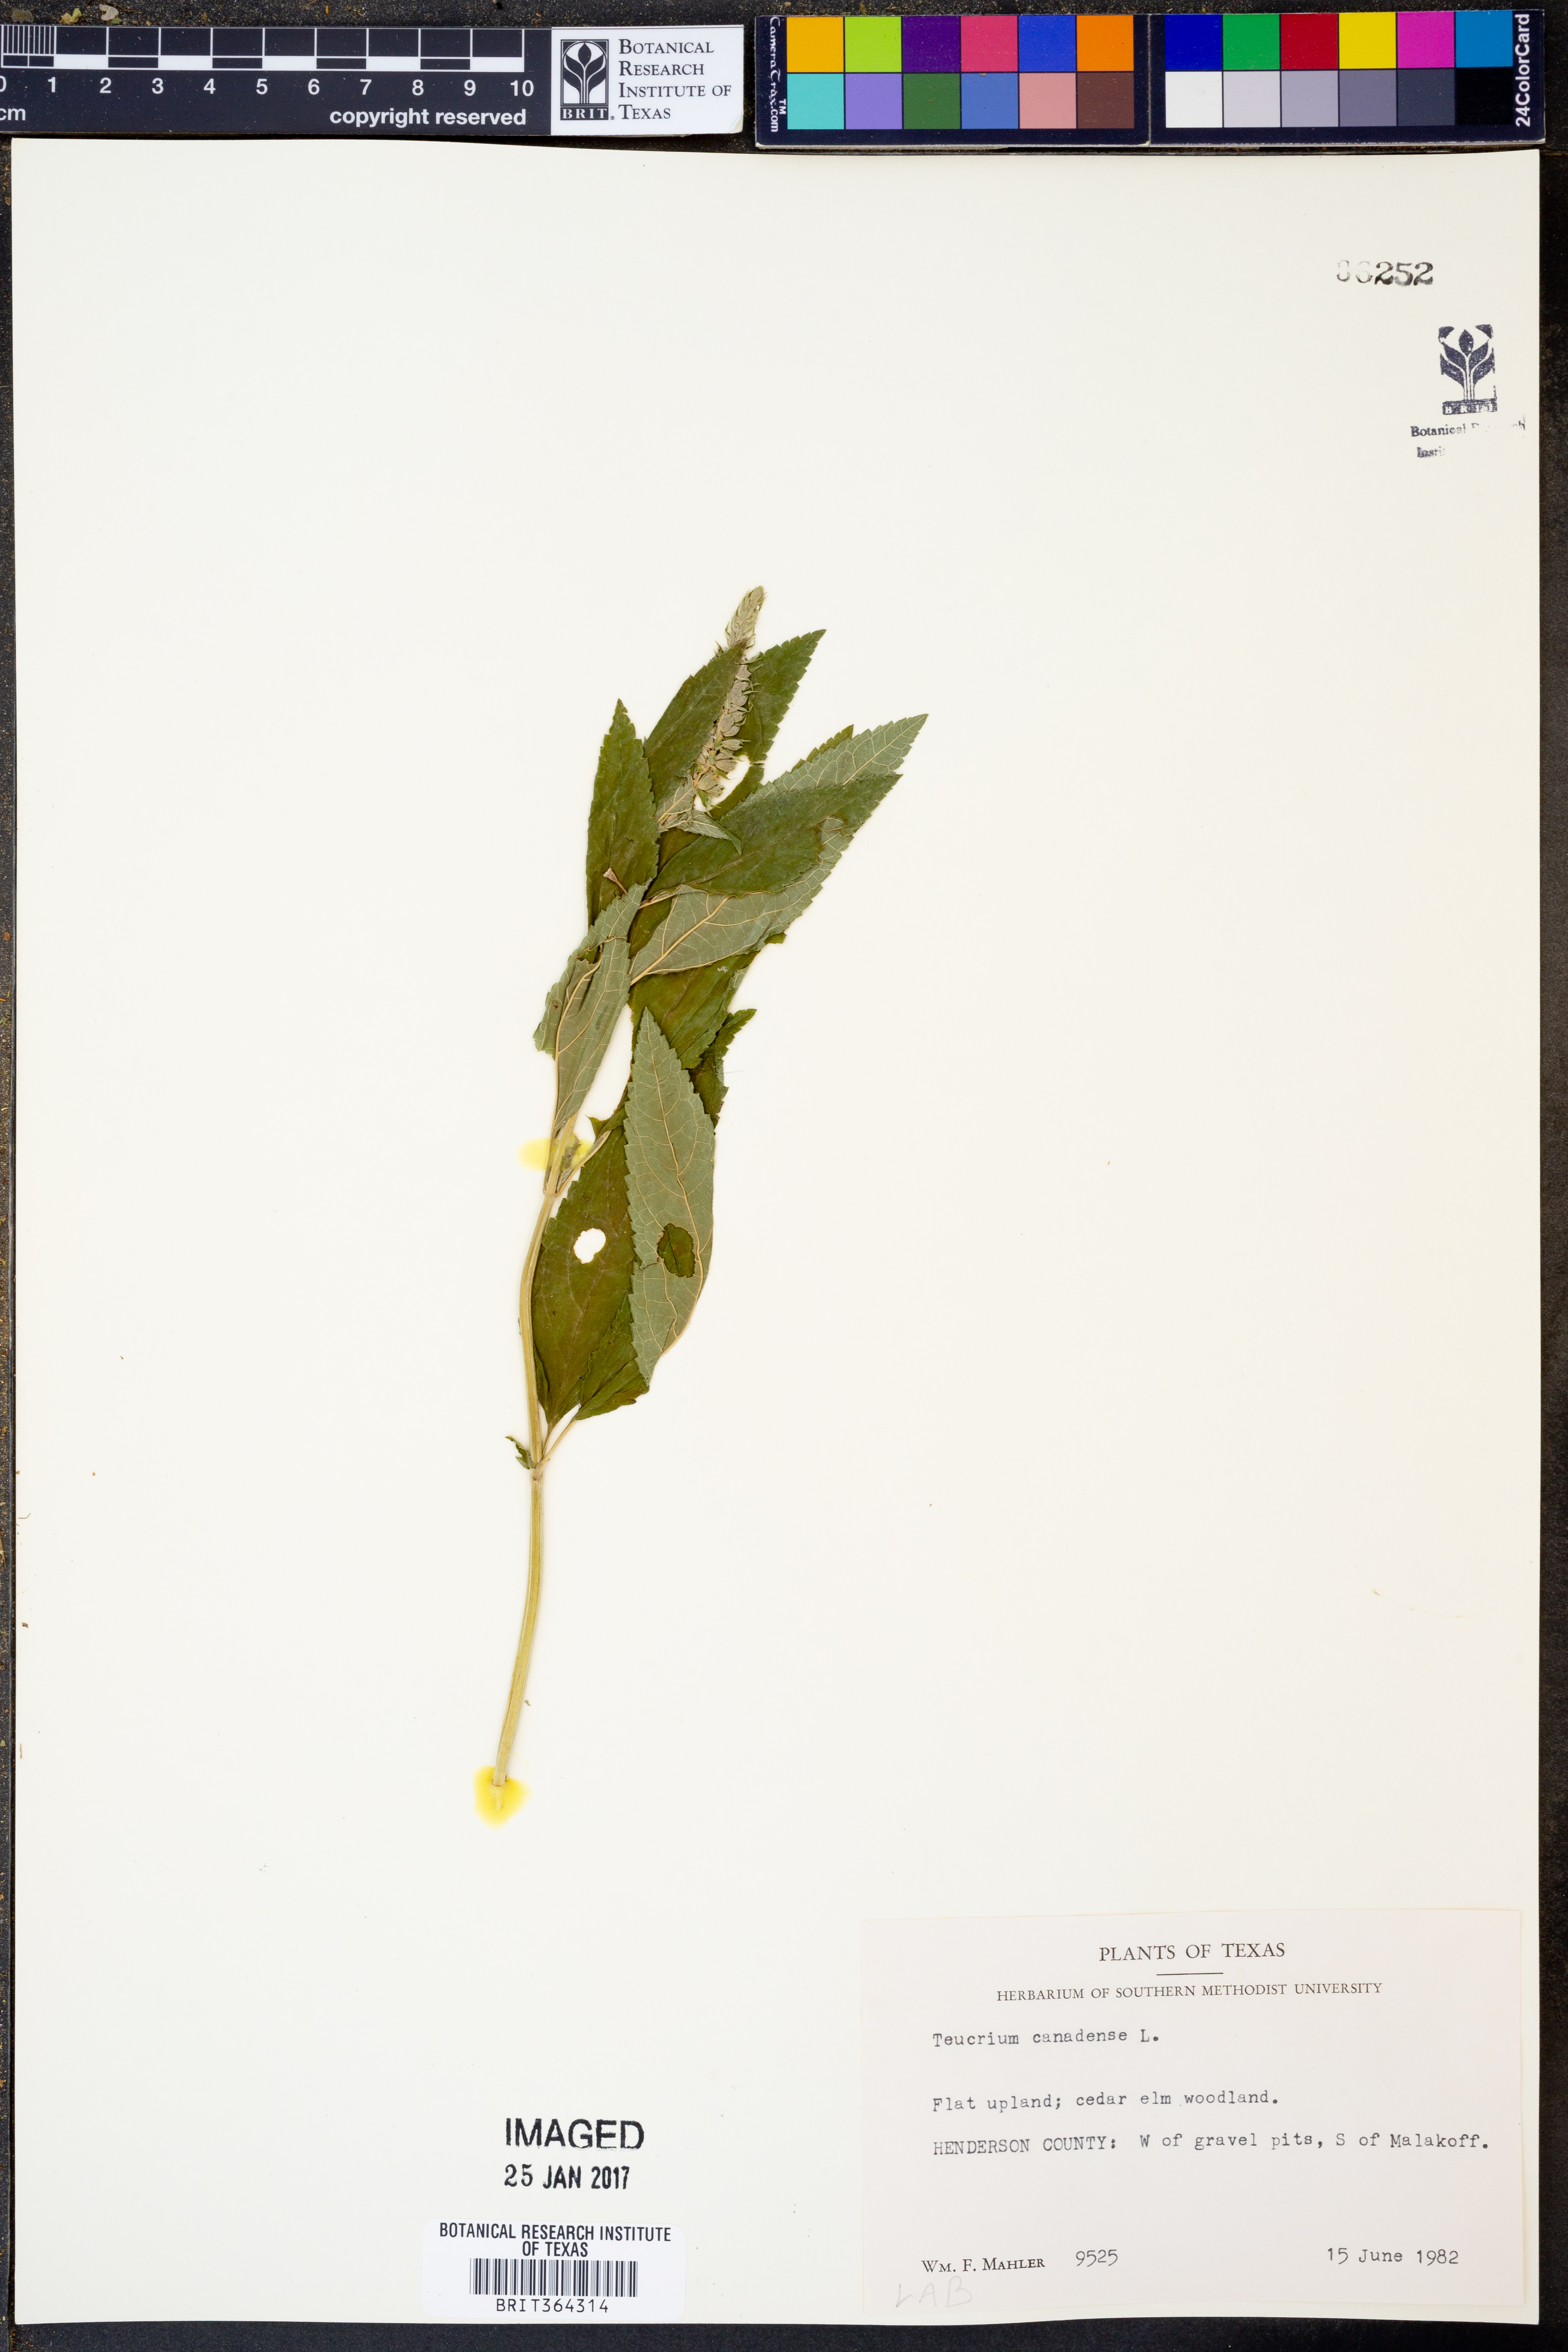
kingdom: Plantae
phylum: Tracheophyta
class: Magnoliopsida
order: Lamiales
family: Lamiaceae
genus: Teucrium
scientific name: Teucrium canadense
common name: American germander
